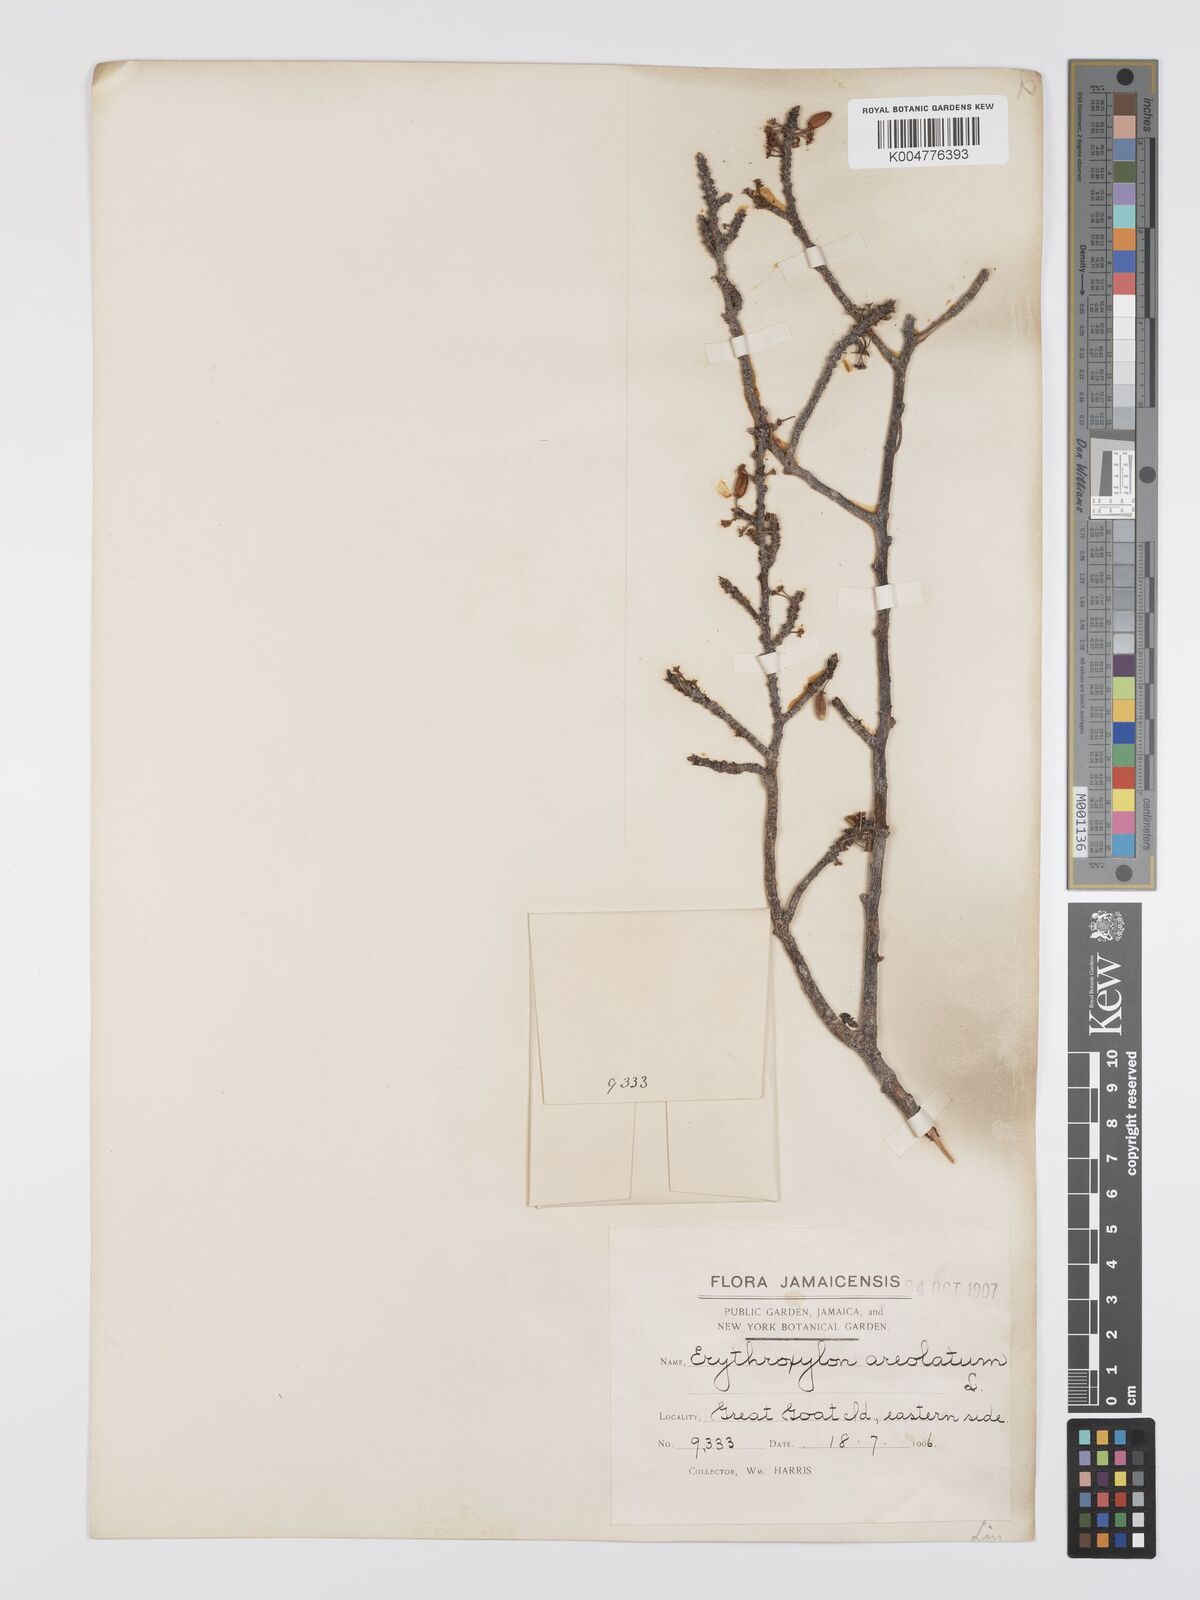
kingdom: Plantae
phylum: Tracheophyta
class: Magnoliopsida
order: Malpighiales
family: Erythroxylaceae
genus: Erythroxylum
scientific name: Erythroxylum areolatum
